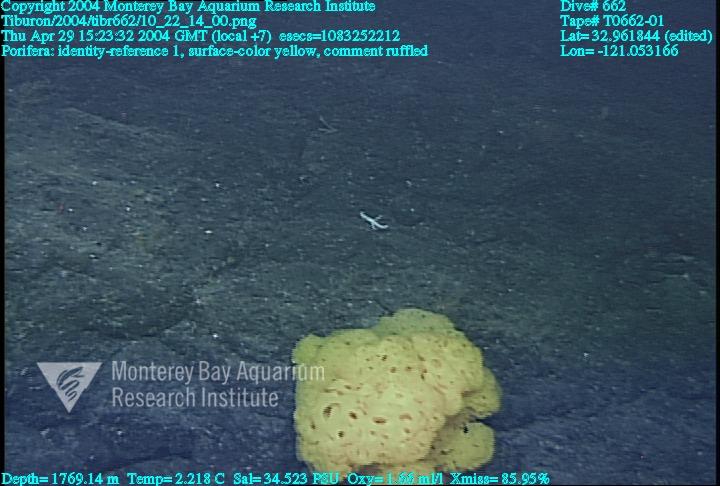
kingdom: Animalia
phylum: Porifera
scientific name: Porifera
